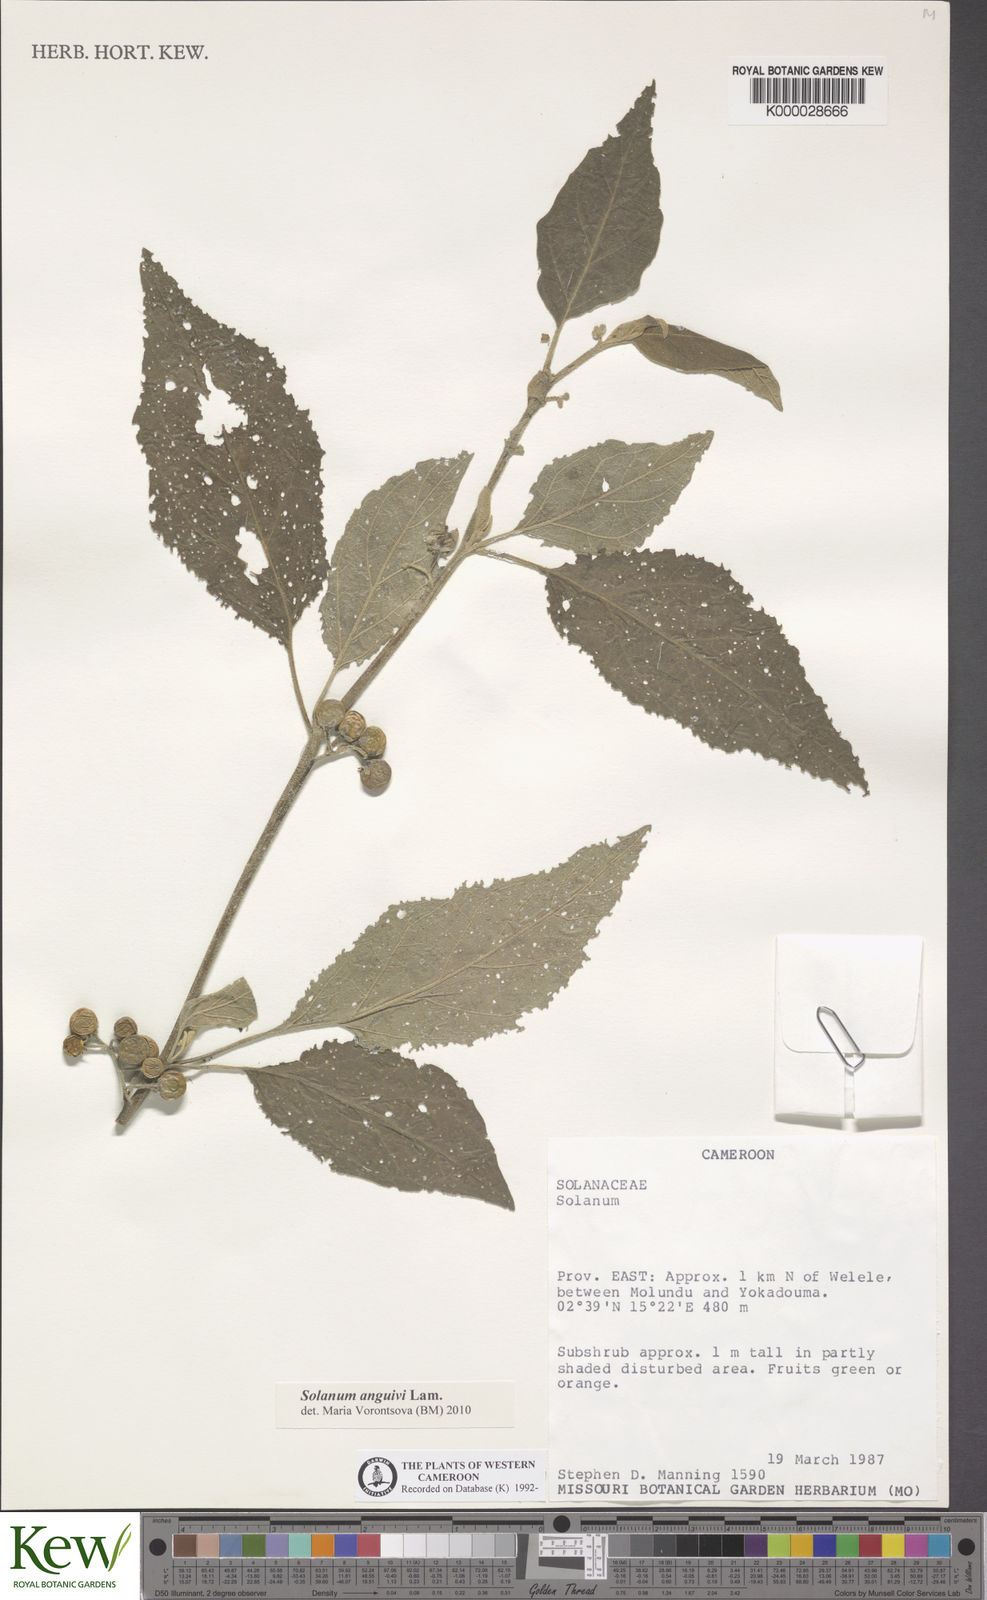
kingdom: Plantae
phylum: Tracheophyta
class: Magnoliopsida
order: Solanales
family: Solanaceae
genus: Solanum
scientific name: Solanum anguivi
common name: Forest bitterberry
